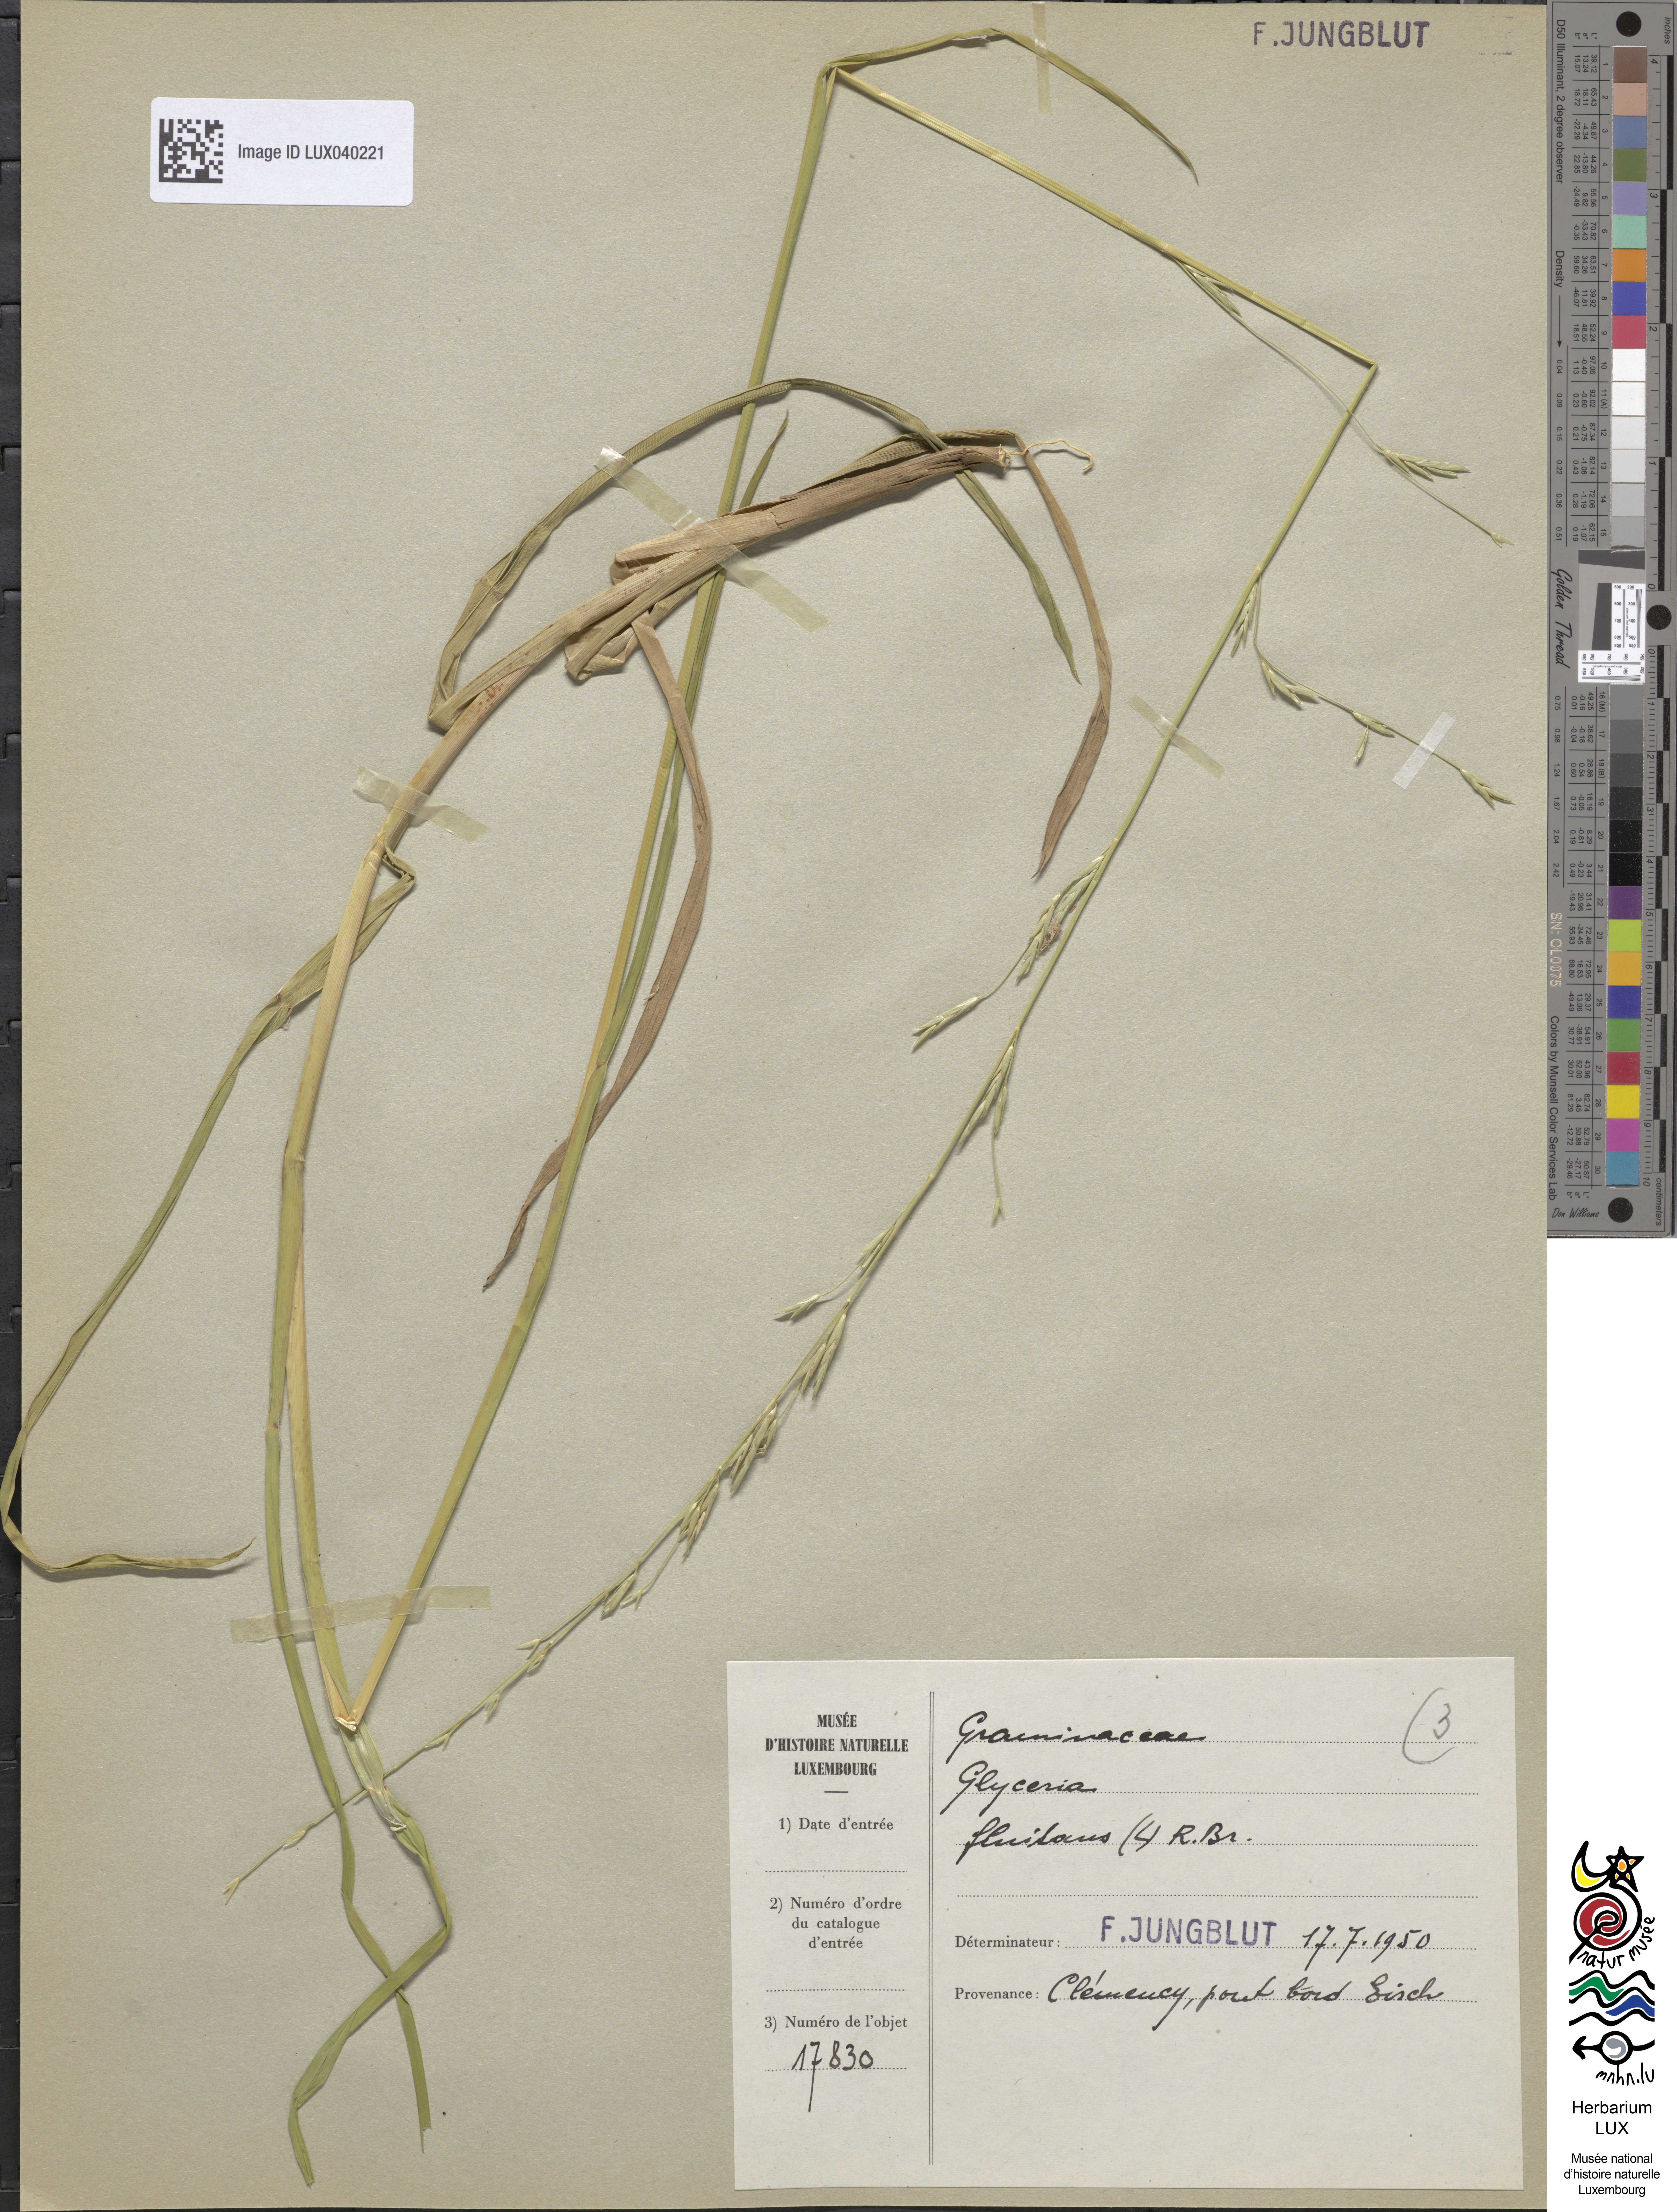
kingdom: Plantae
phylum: Tracheophyta
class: Liliopsida
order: Poales
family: Poaceae
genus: Glyceria
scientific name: Glyceria fluitans
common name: Floating sweet-grass
